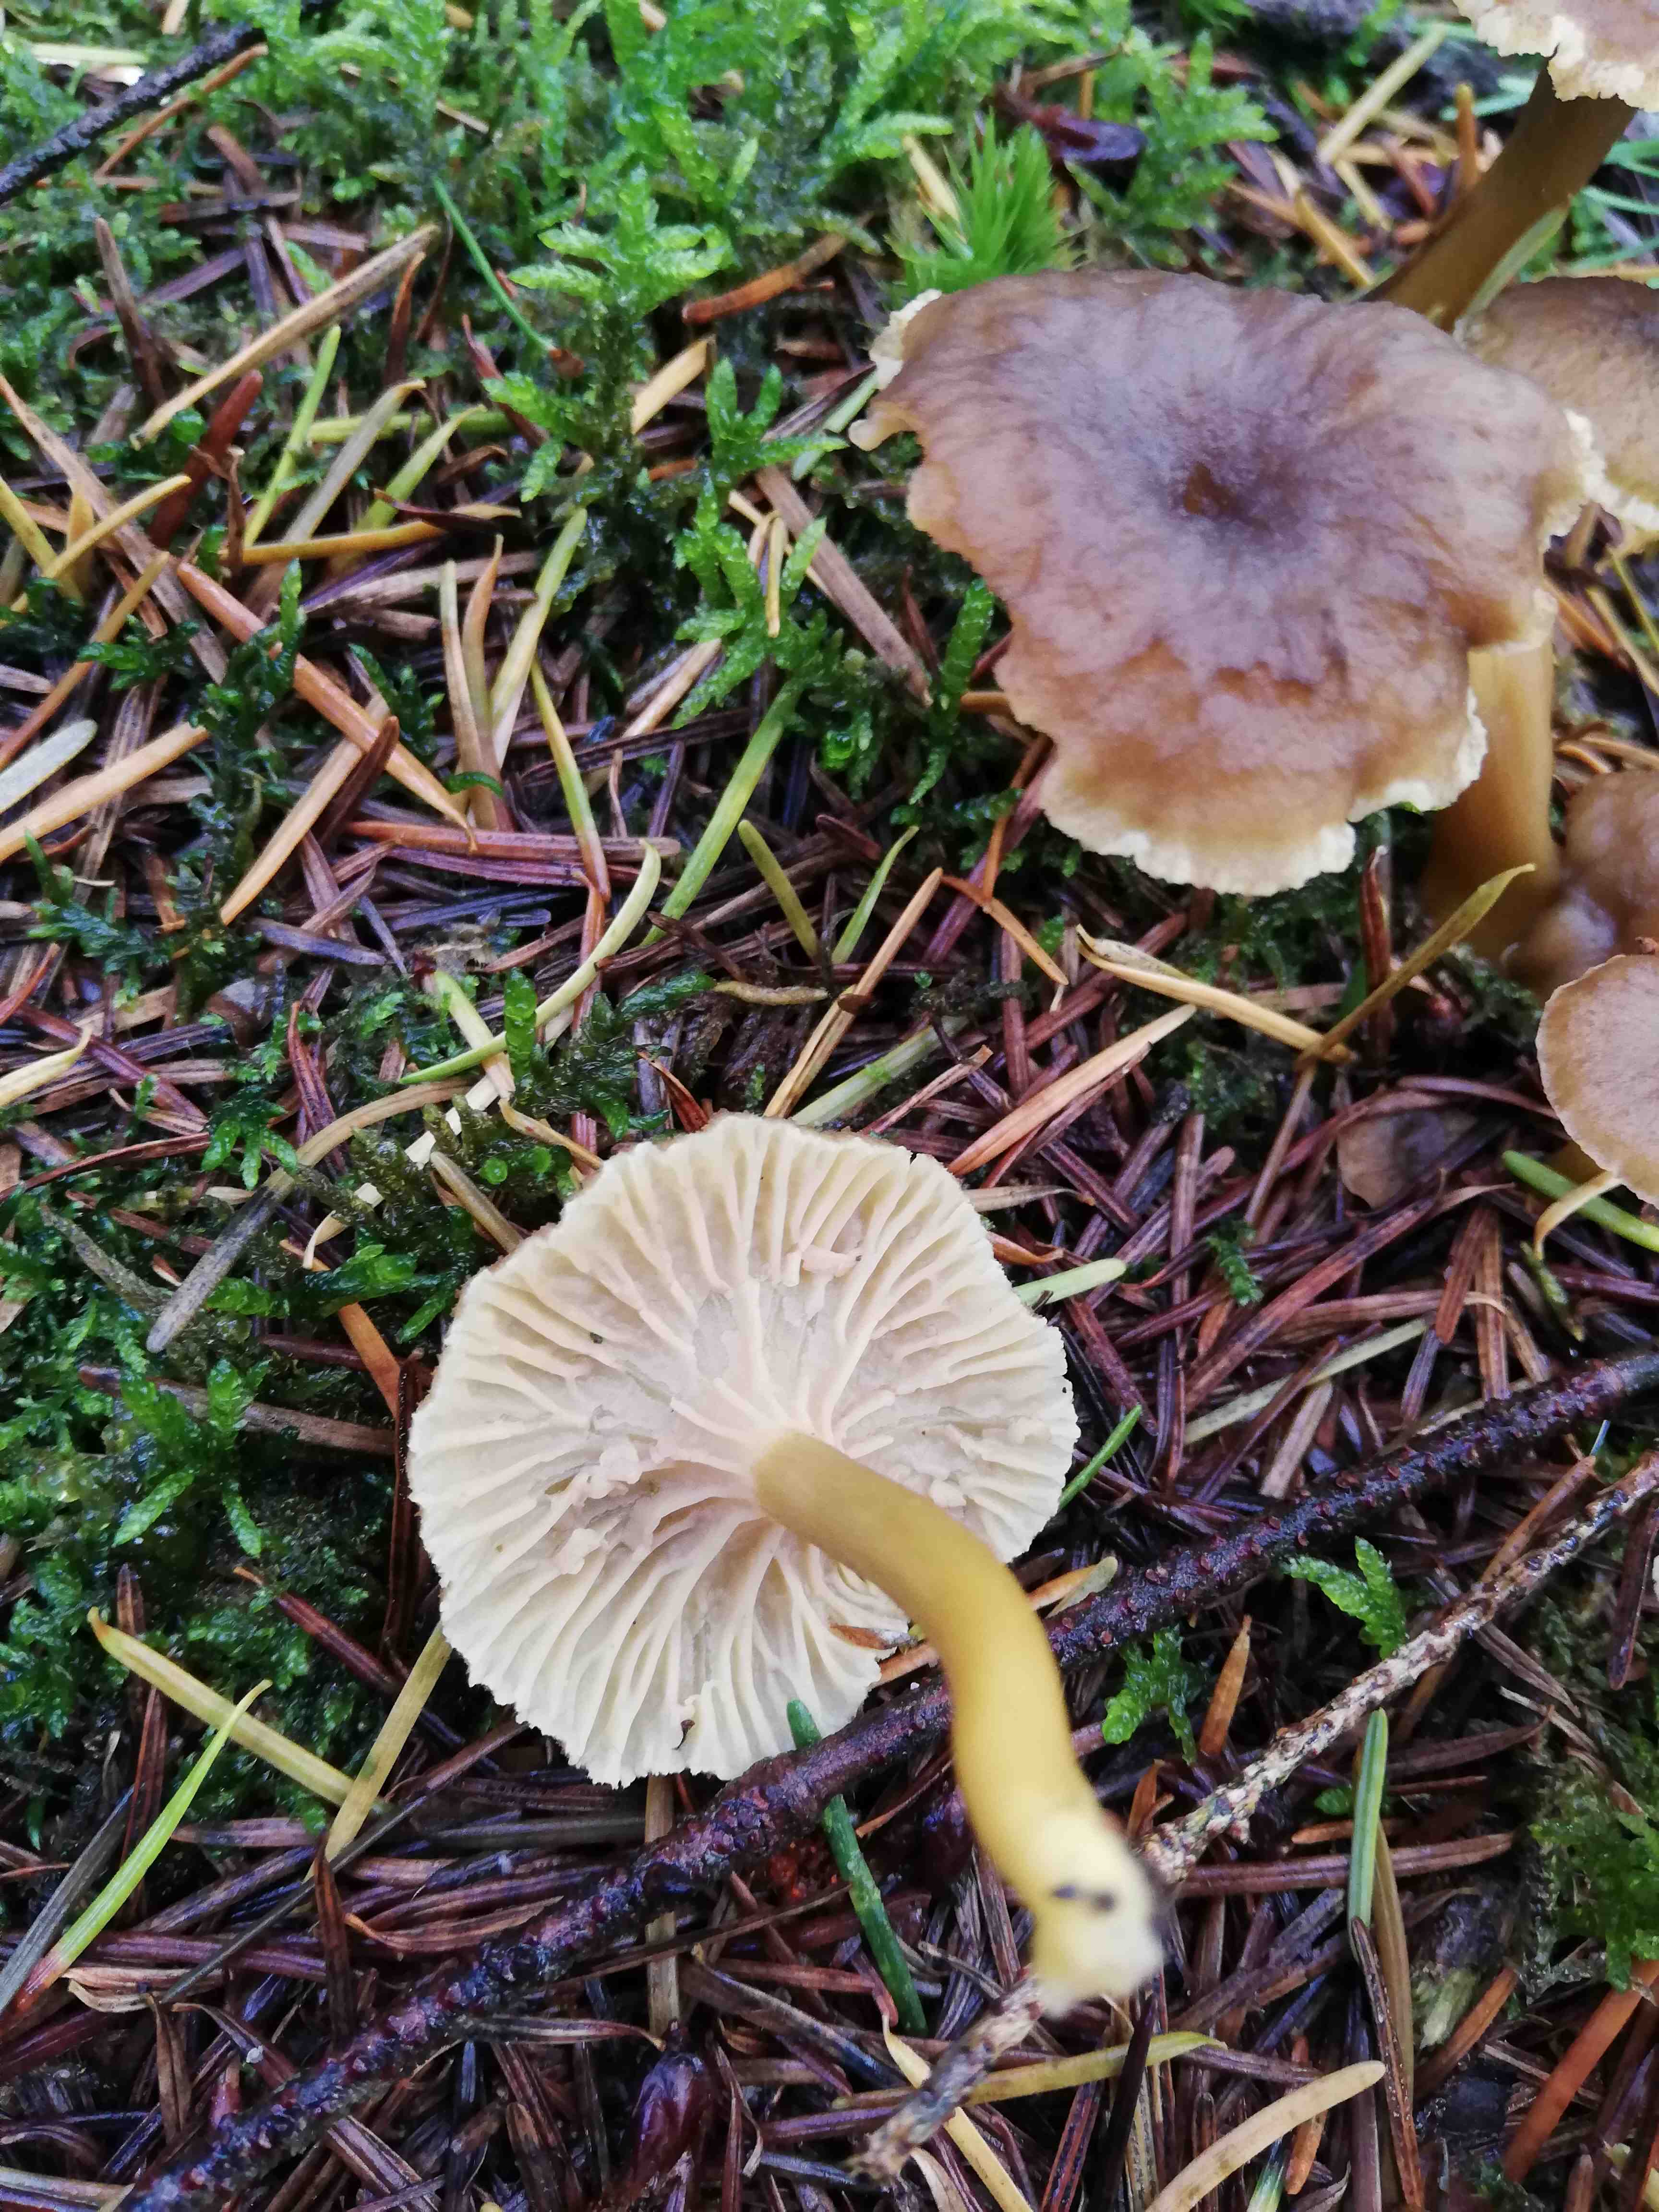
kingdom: Fungi
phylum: Basidiomycota
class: Agaricomycetes
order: Cantharellales
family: Hydnaceae
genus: Craterellus
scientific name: Craterellus tubaeformis
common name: tragt-kantarel
